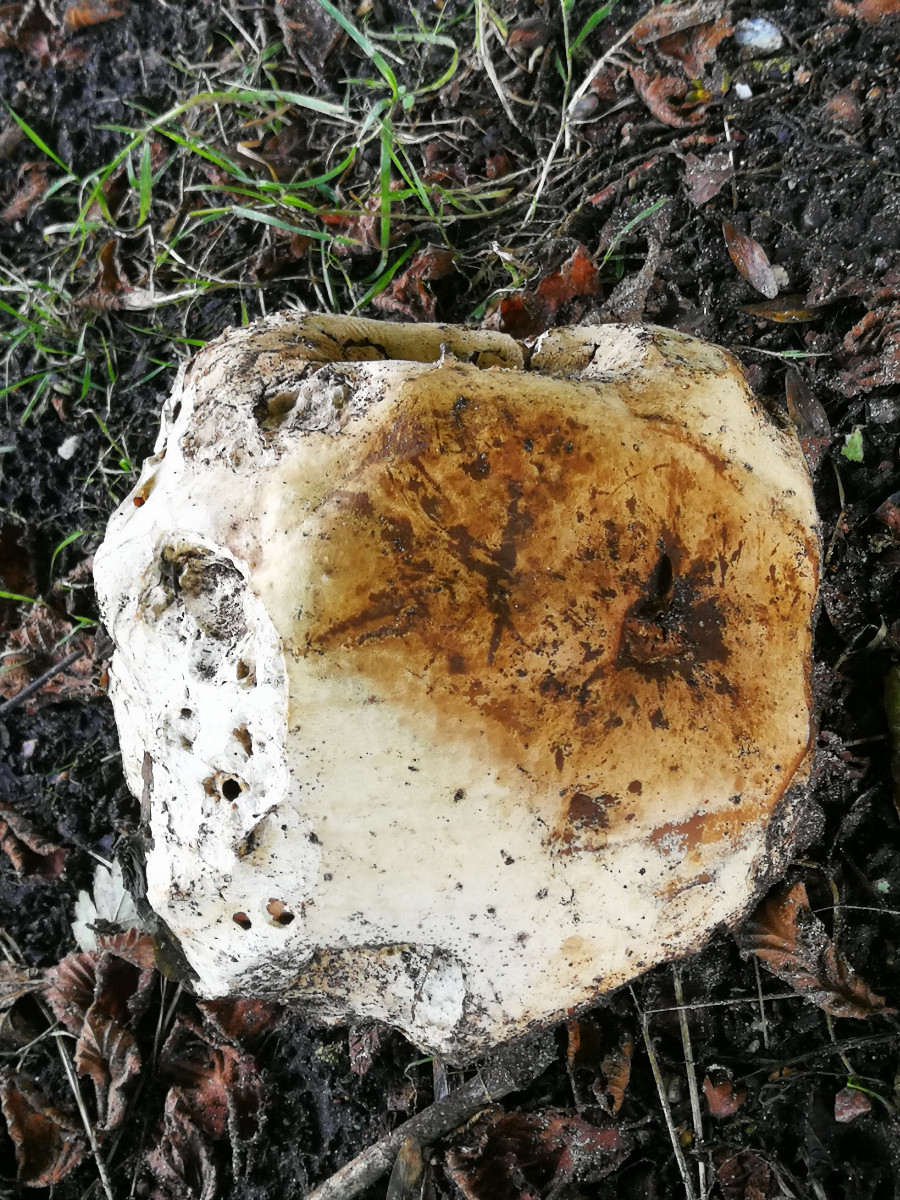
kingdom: Fungi
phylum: Basidiomycota
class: Agaricomycetes
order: Agaricales
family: Lycoperdaceae
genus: Calvatia
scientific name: Calvatia gigantea
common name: kæmpestøvbold
